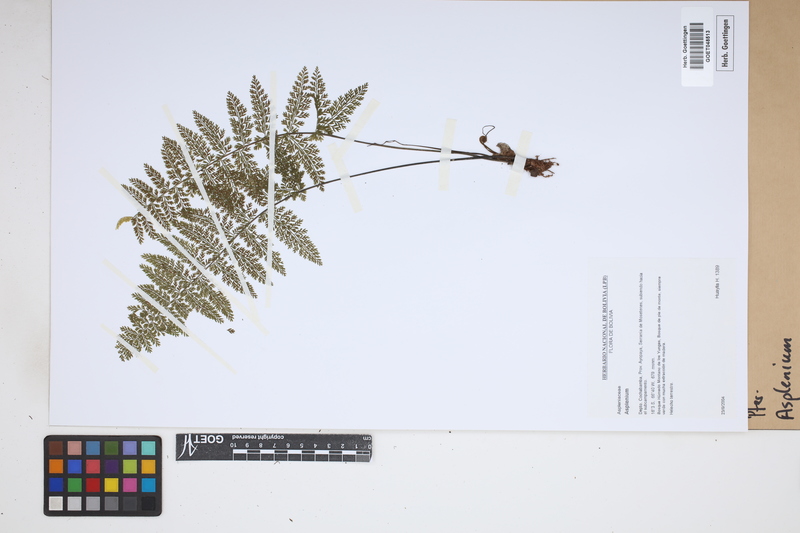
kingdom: Plantae
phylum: Tracheophyta
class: Polypodiopsida
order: Polypodiales
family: Aspleniaceae
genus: Asplenium
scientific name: Asplenium
